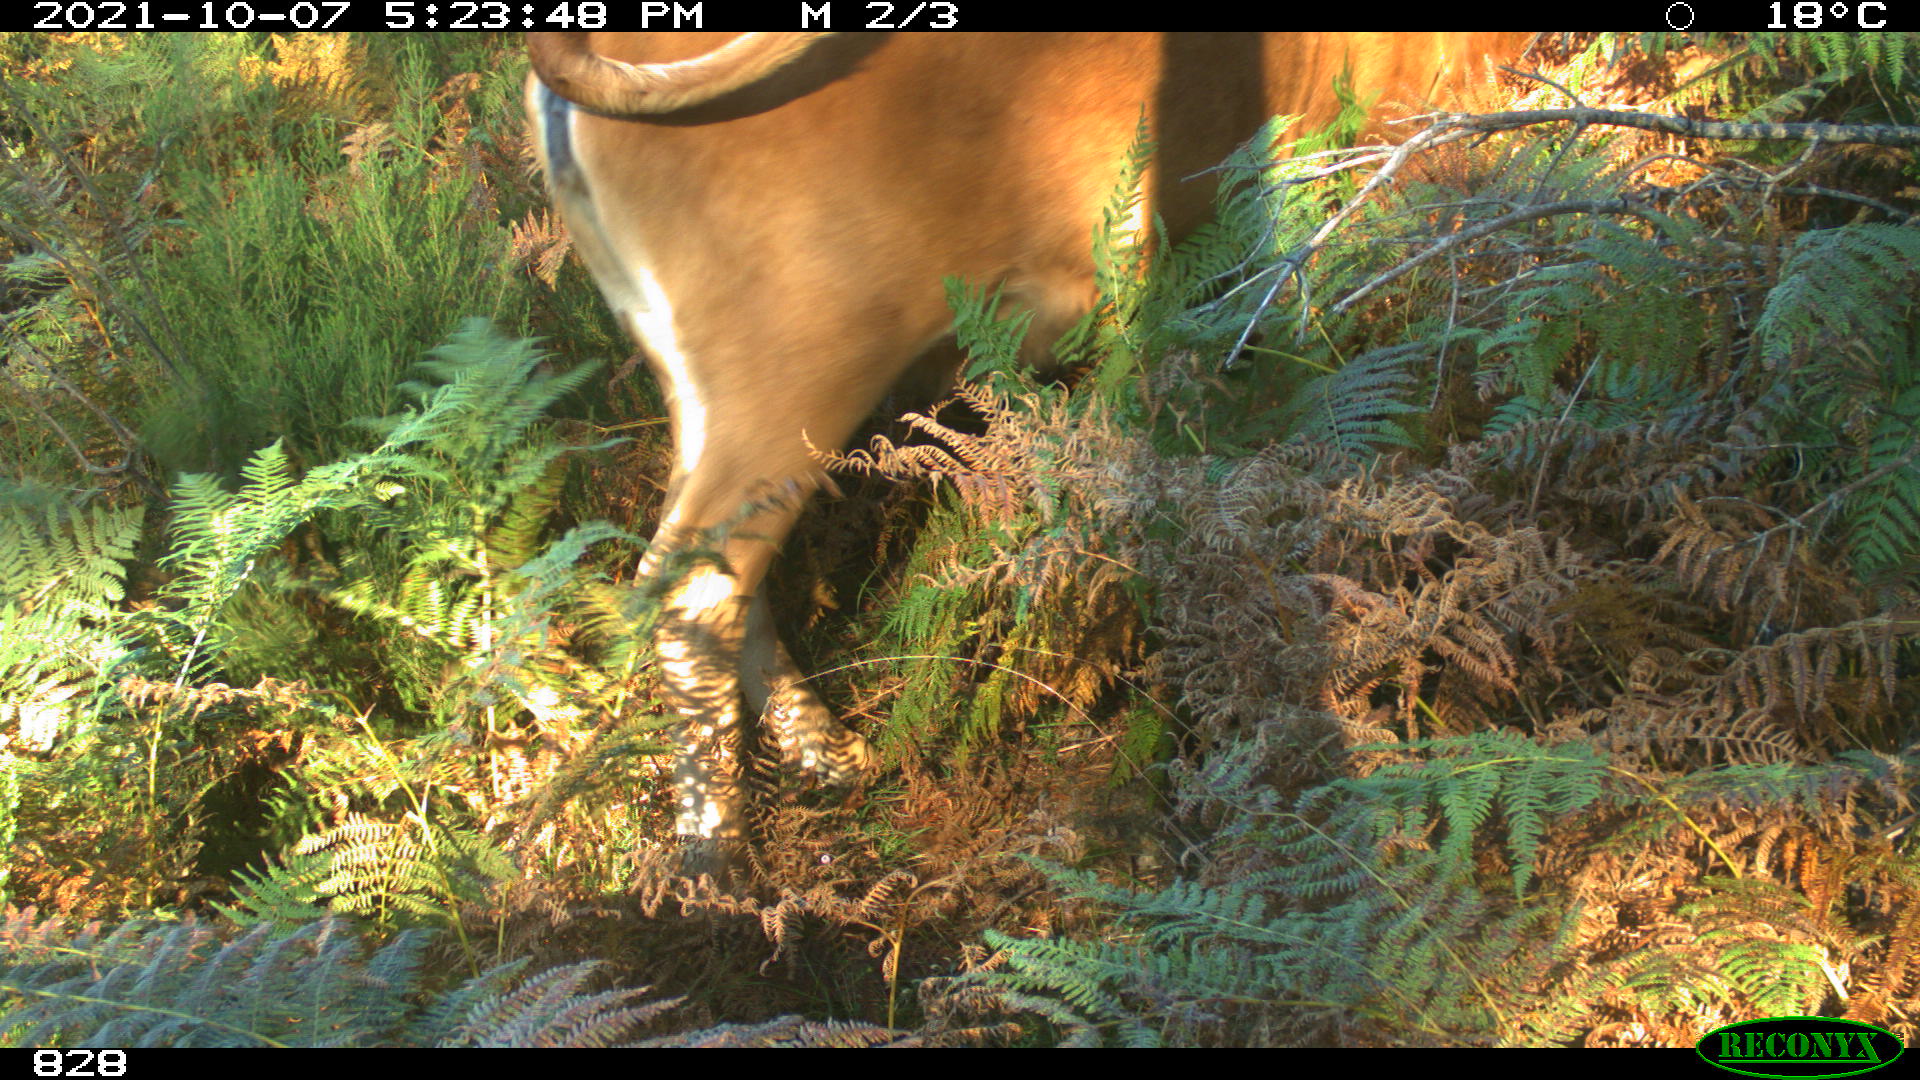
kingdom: Animalia
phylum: Chordata
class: Mammalia
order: Artiodactyla
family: Bovidae
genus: Bos
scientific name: Bos taurus
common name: Domesticated cattle
